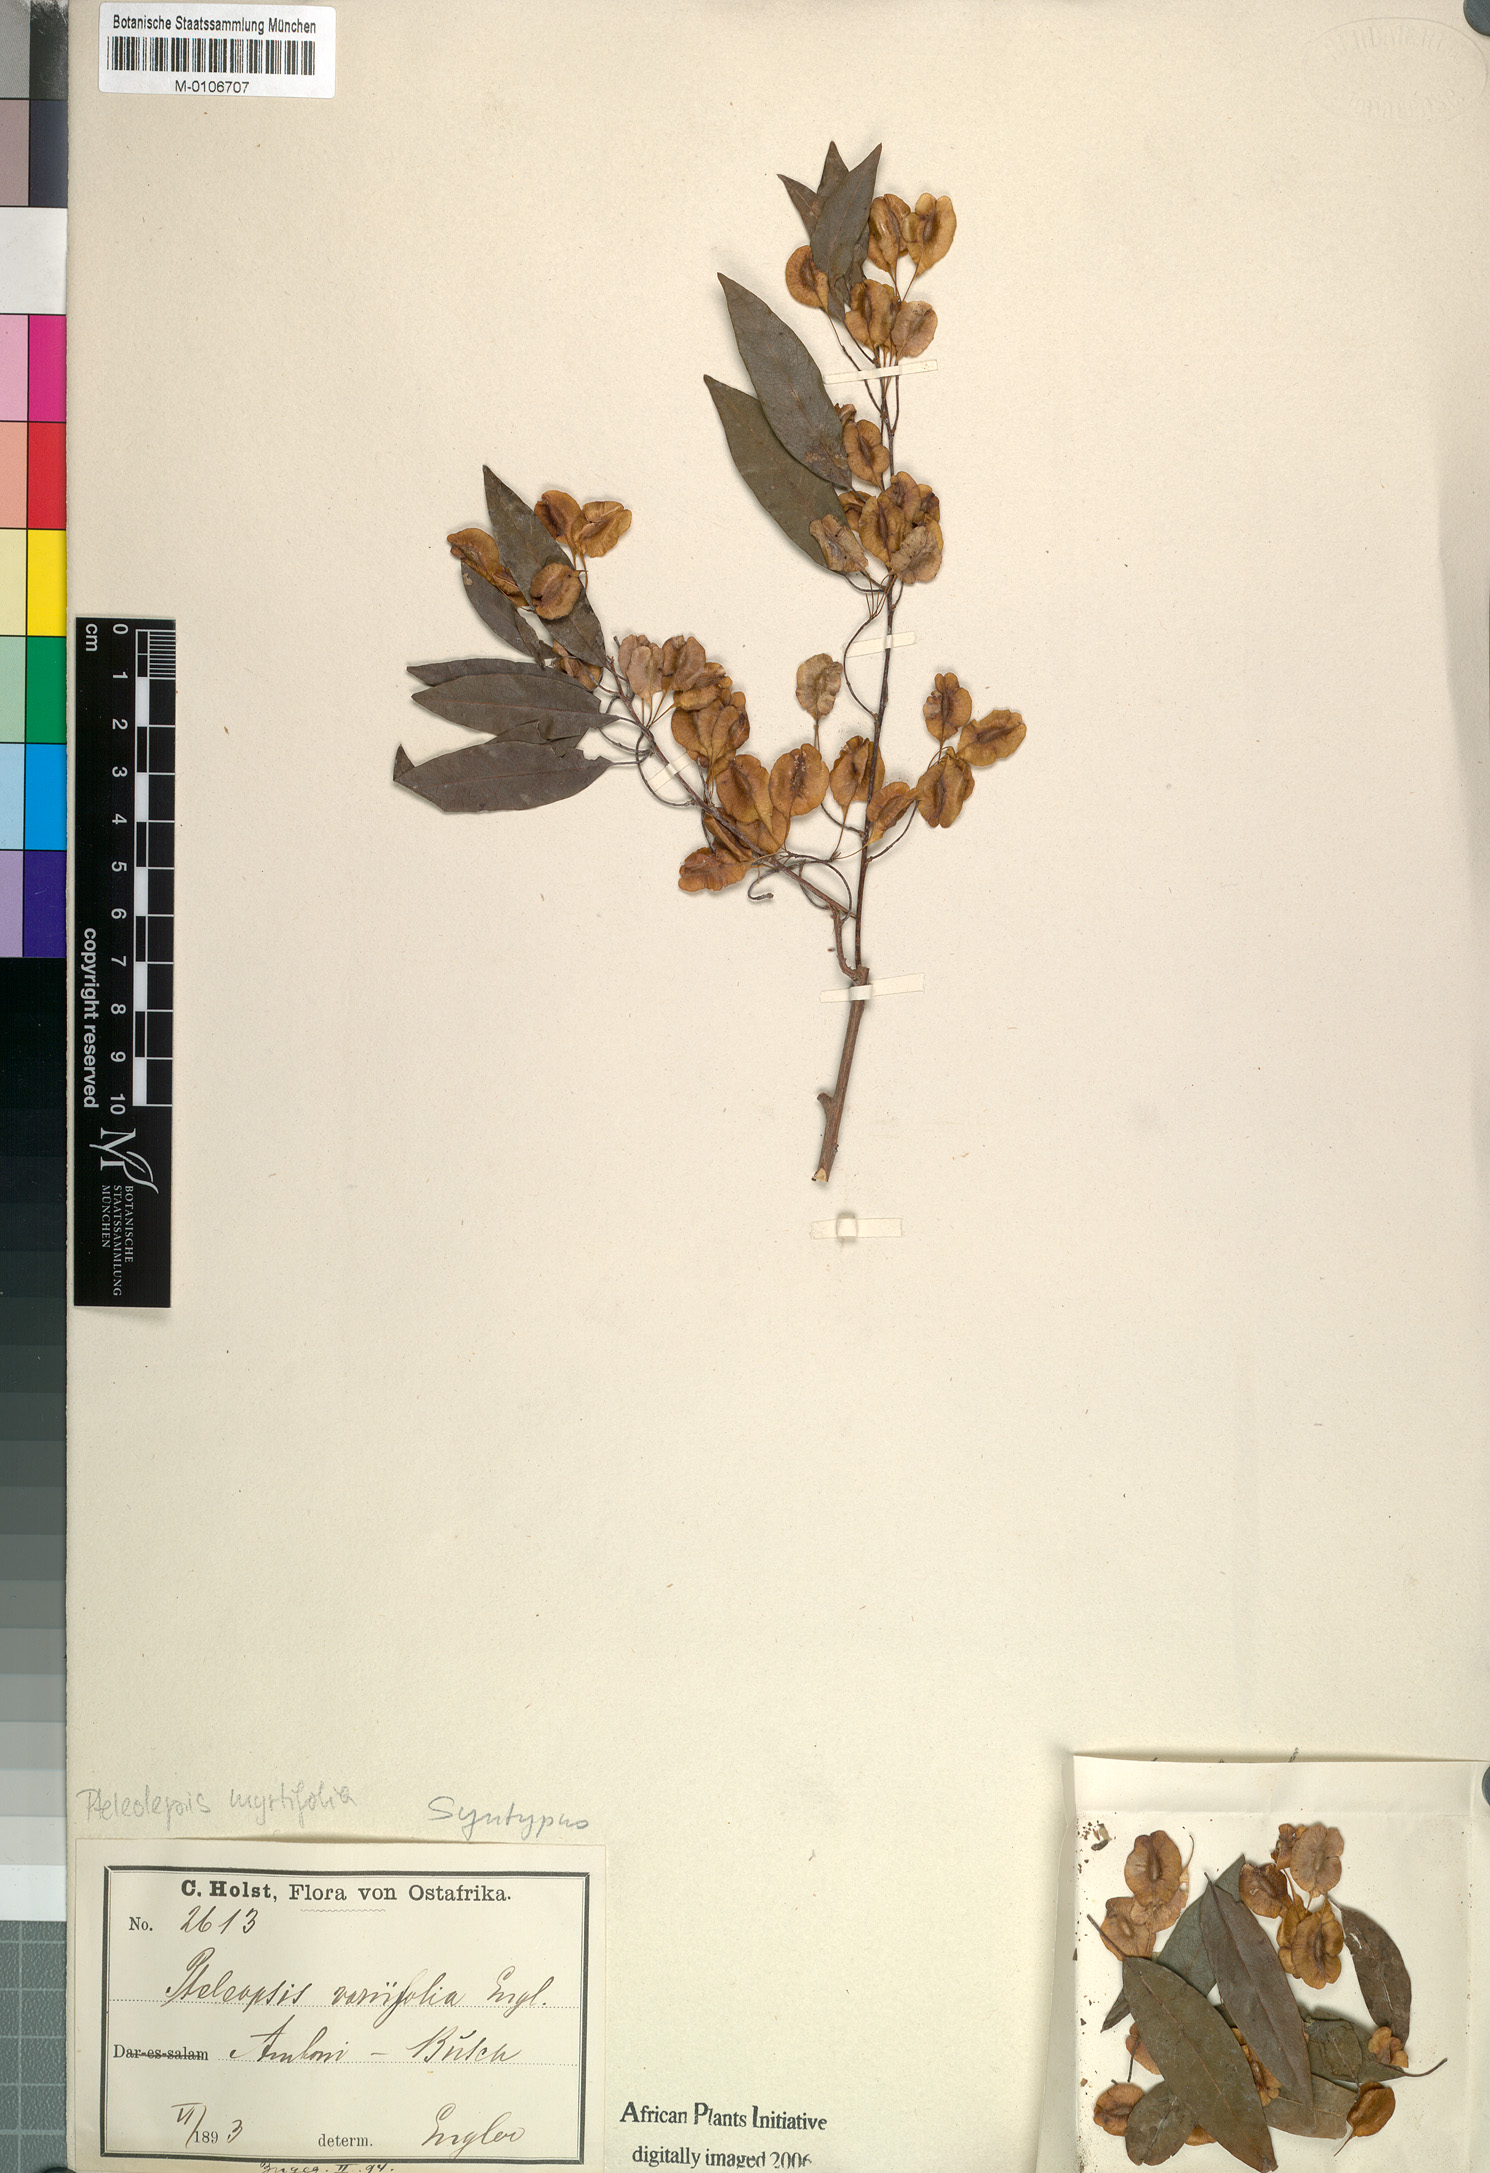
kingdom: Plantae
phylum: Tracheophyta
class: Magnoliopsida
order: Myrtales
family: Combretaceae
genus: Terminalia
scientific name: Terminalia myrtifolia
